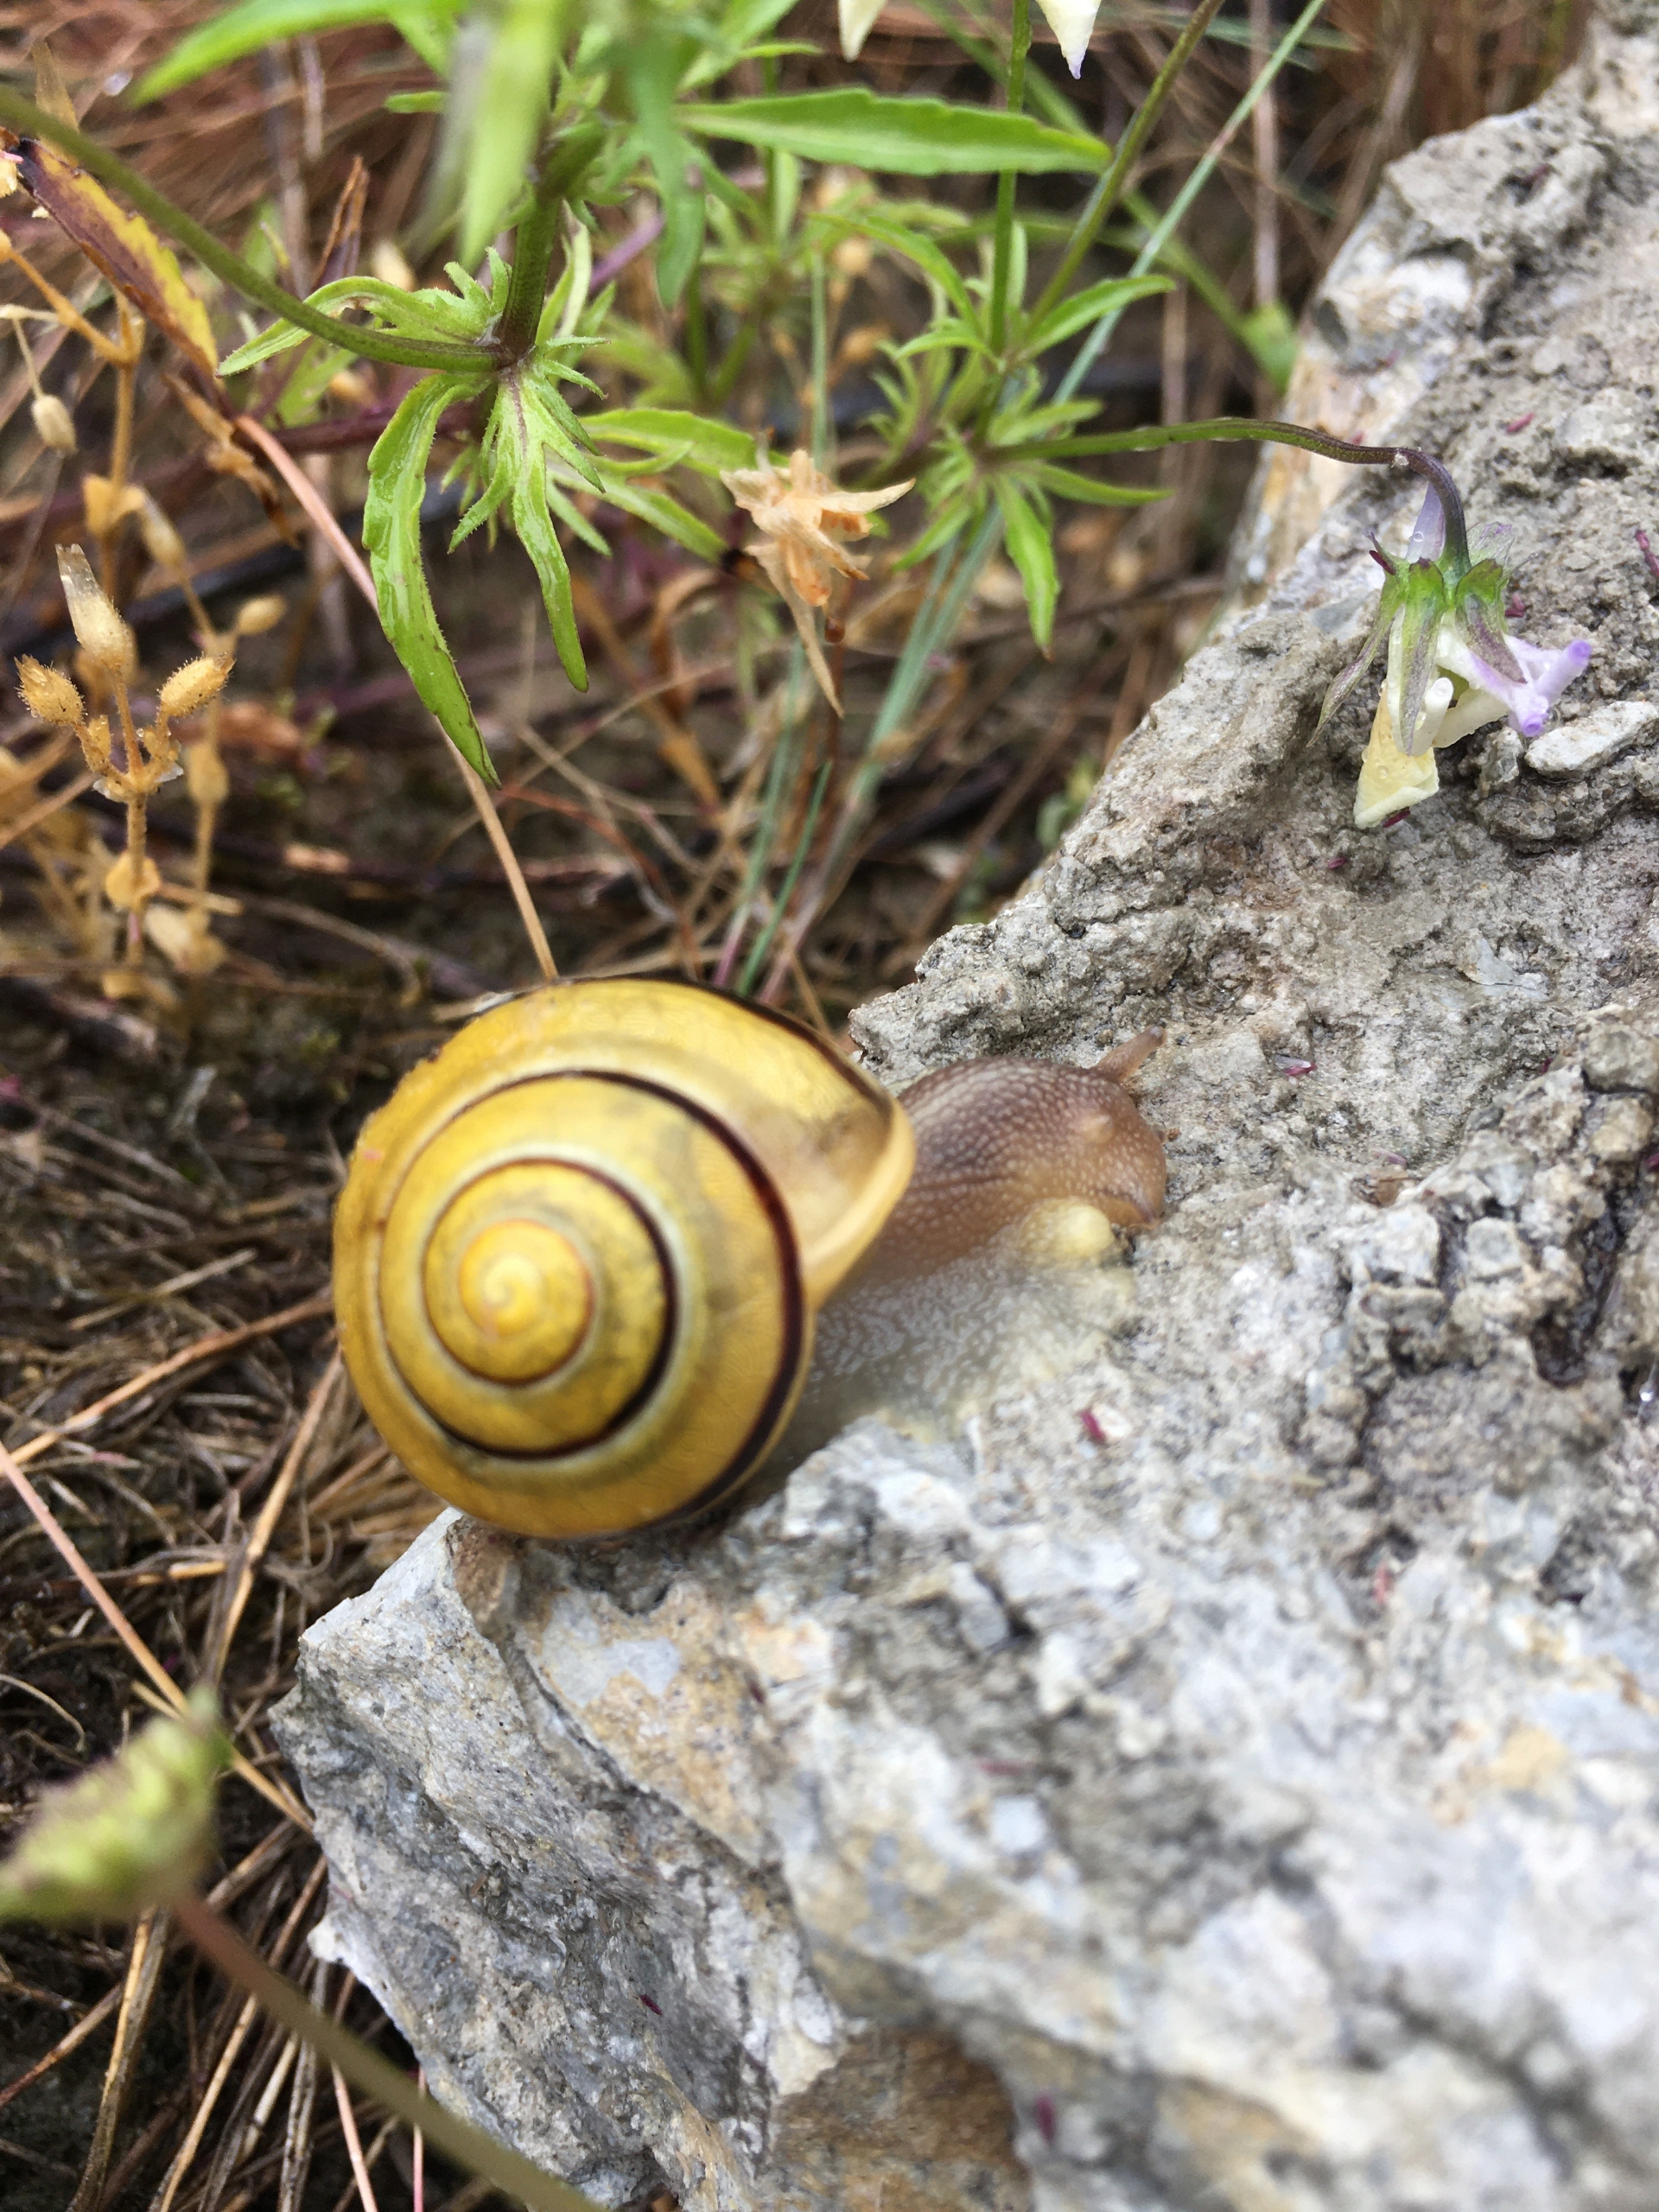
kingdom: Animalia
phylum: Mollusca
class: Gastropoda
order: Stylommatophora
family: Helicidae
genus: Cepaea
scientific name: Cepaea hortensis
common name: Havesnegl
